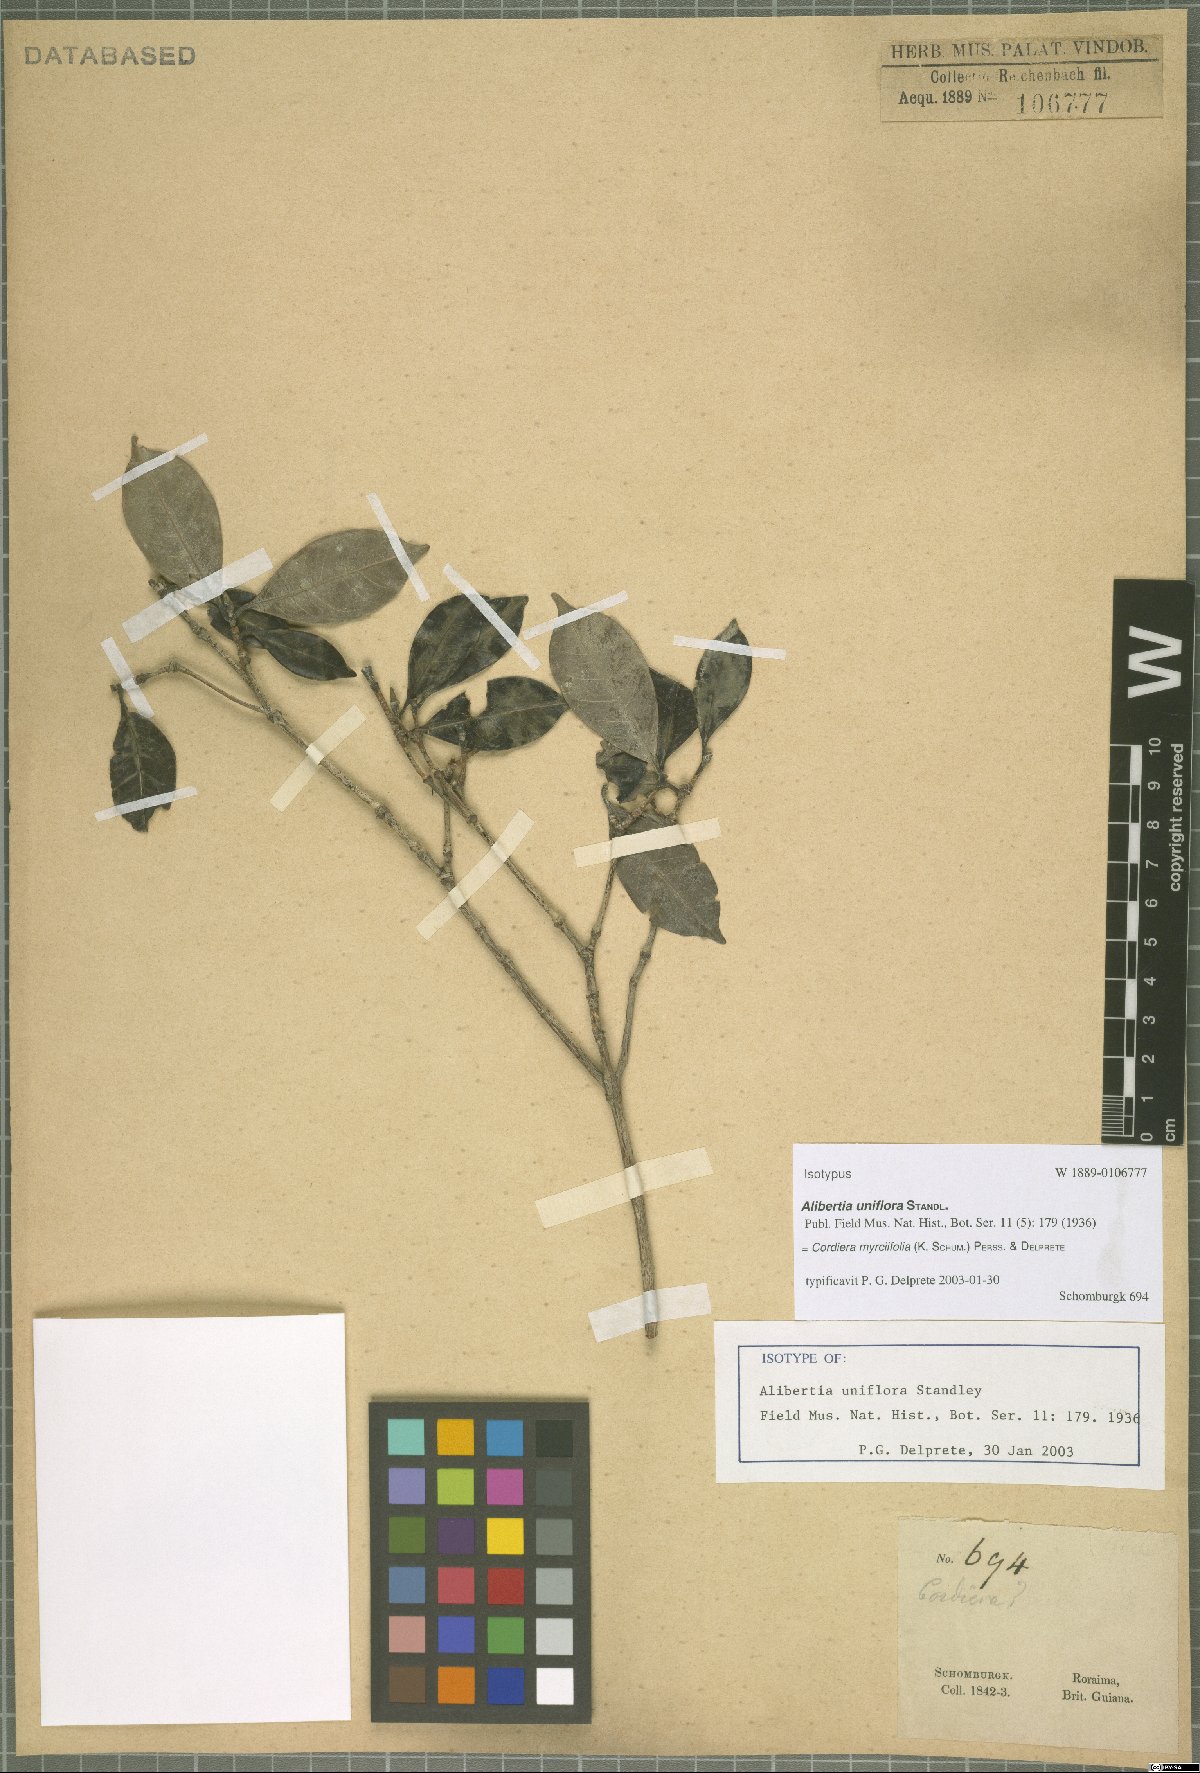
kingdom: Plantae
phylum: Tracheophyta
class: Magnoliopsida
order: Gentianales
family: Rubiaceae
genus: Cordiera
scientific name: Cordiera myrciifolia
